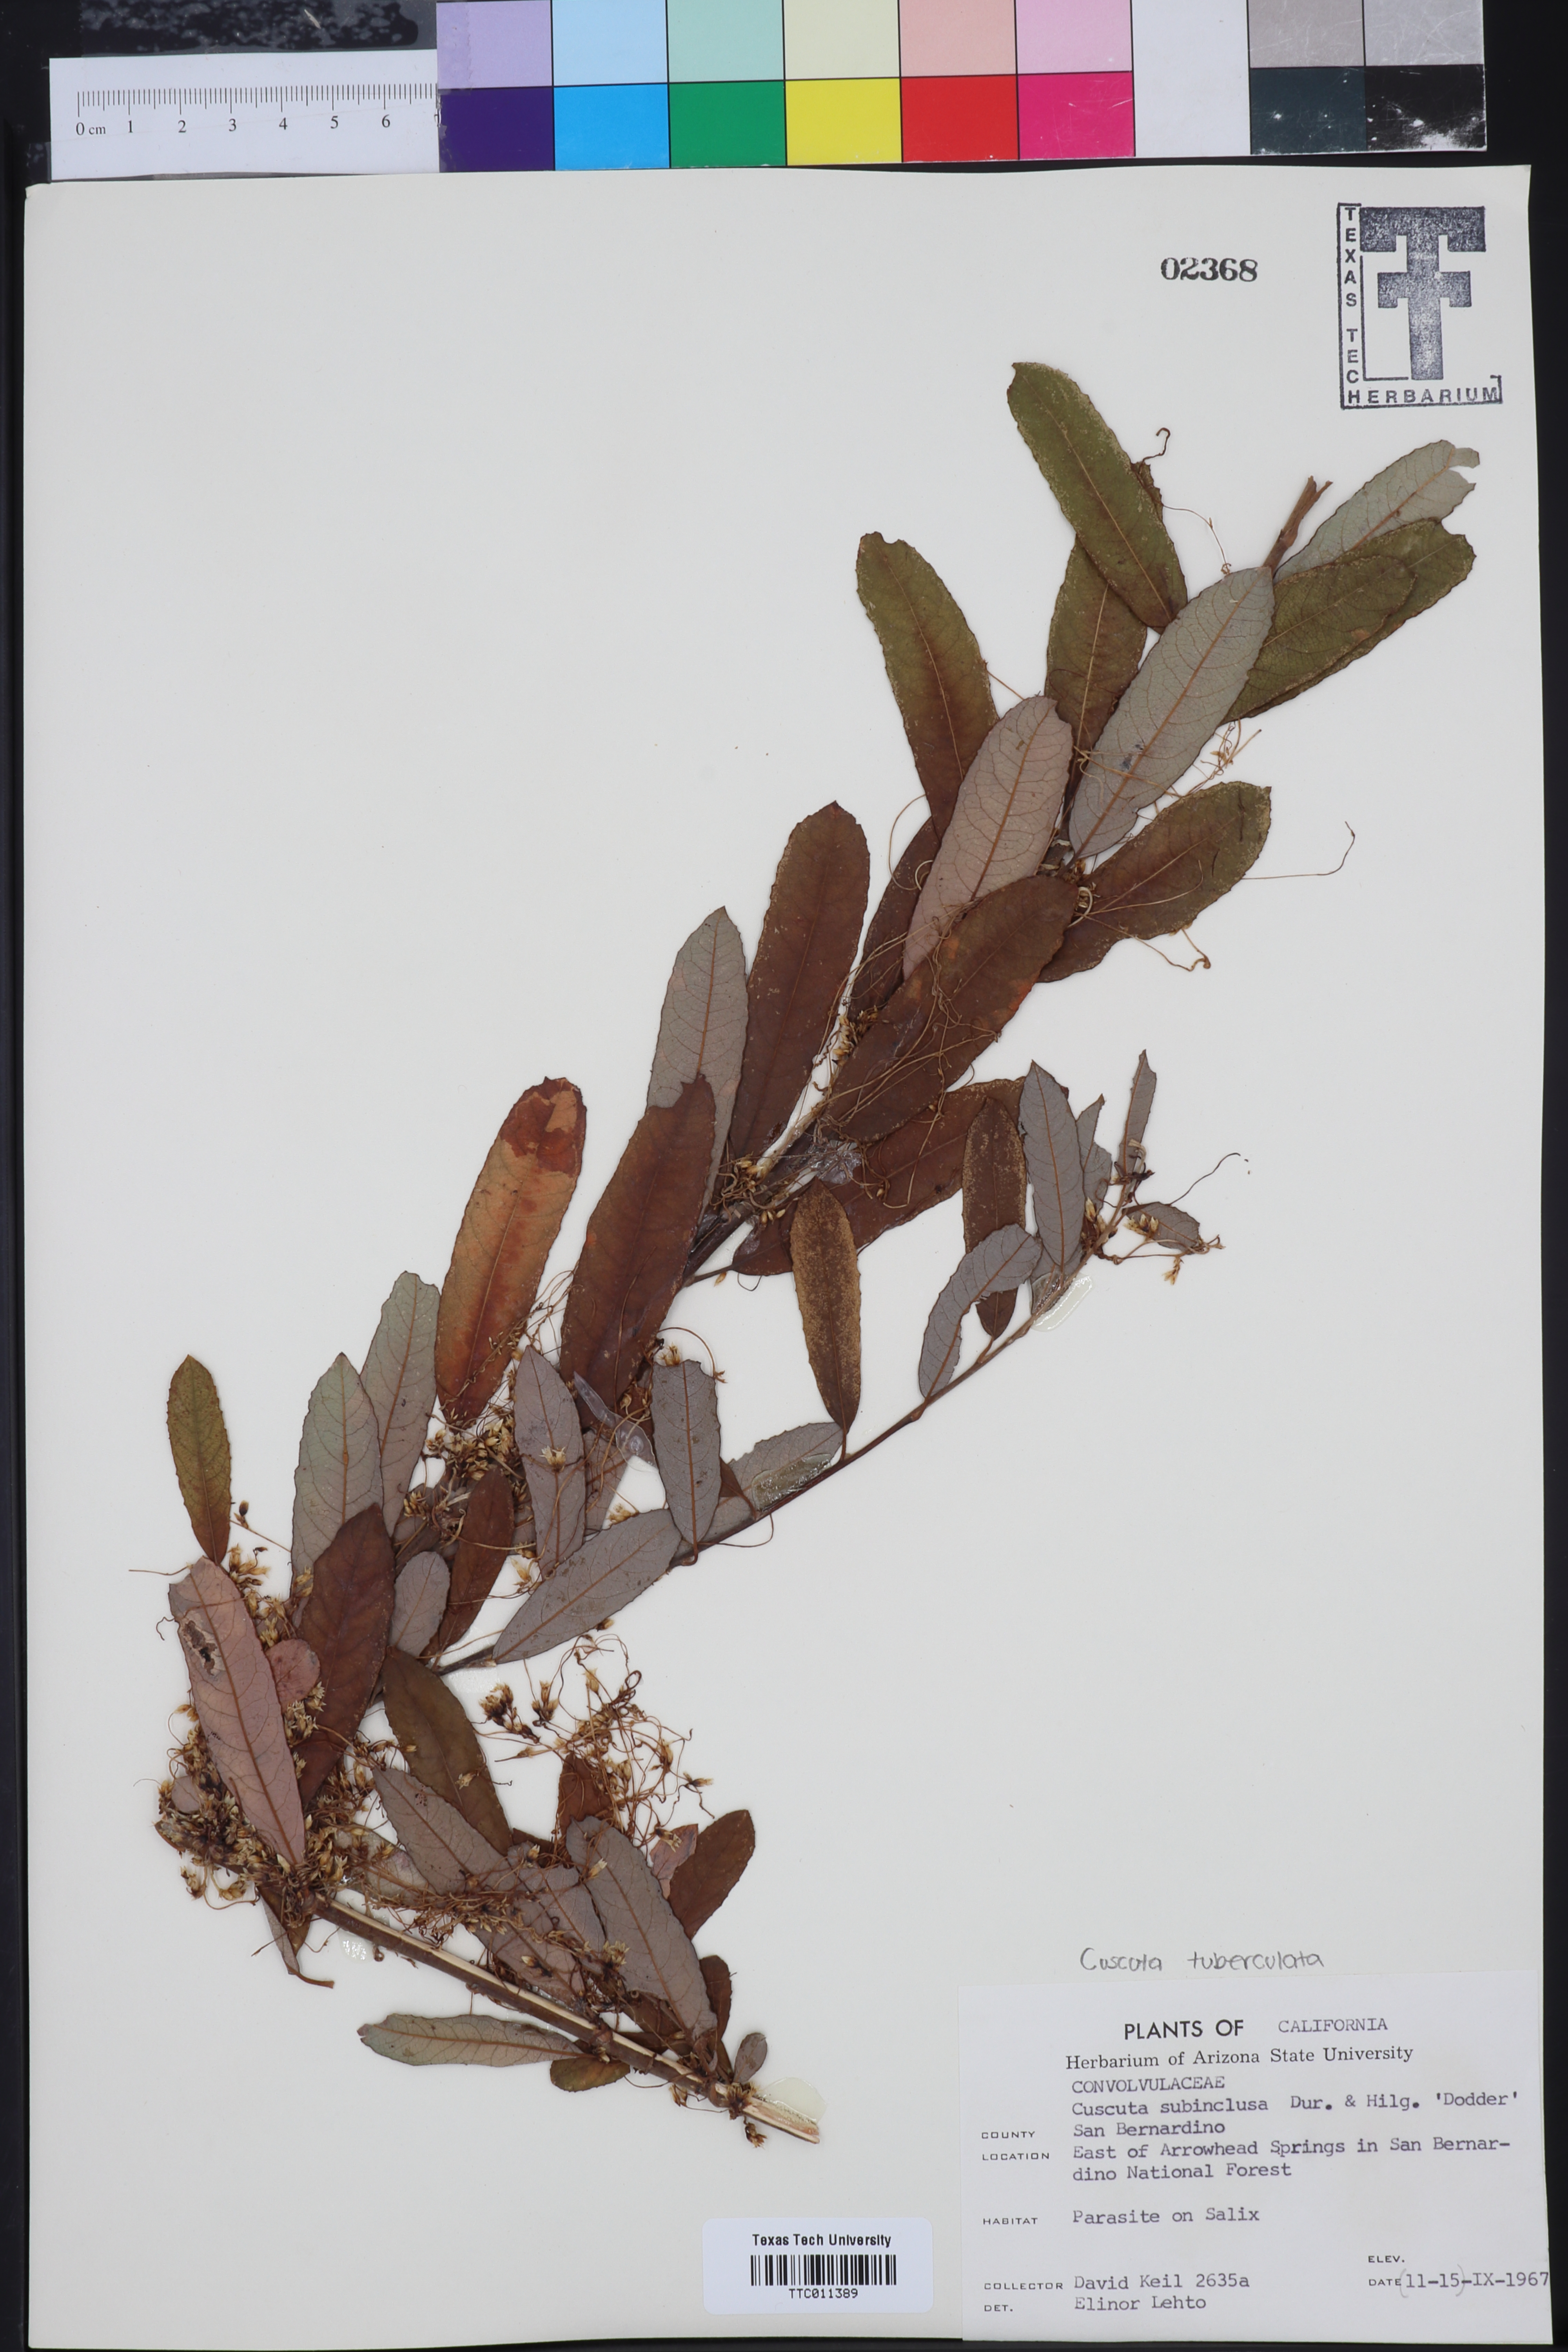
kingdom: Plantae
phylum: Tracheophyta
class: Magnoliopsida
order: Solanales
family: Convolvulaceae
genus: Cuscuta
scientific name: Cuscuta subinclusa
